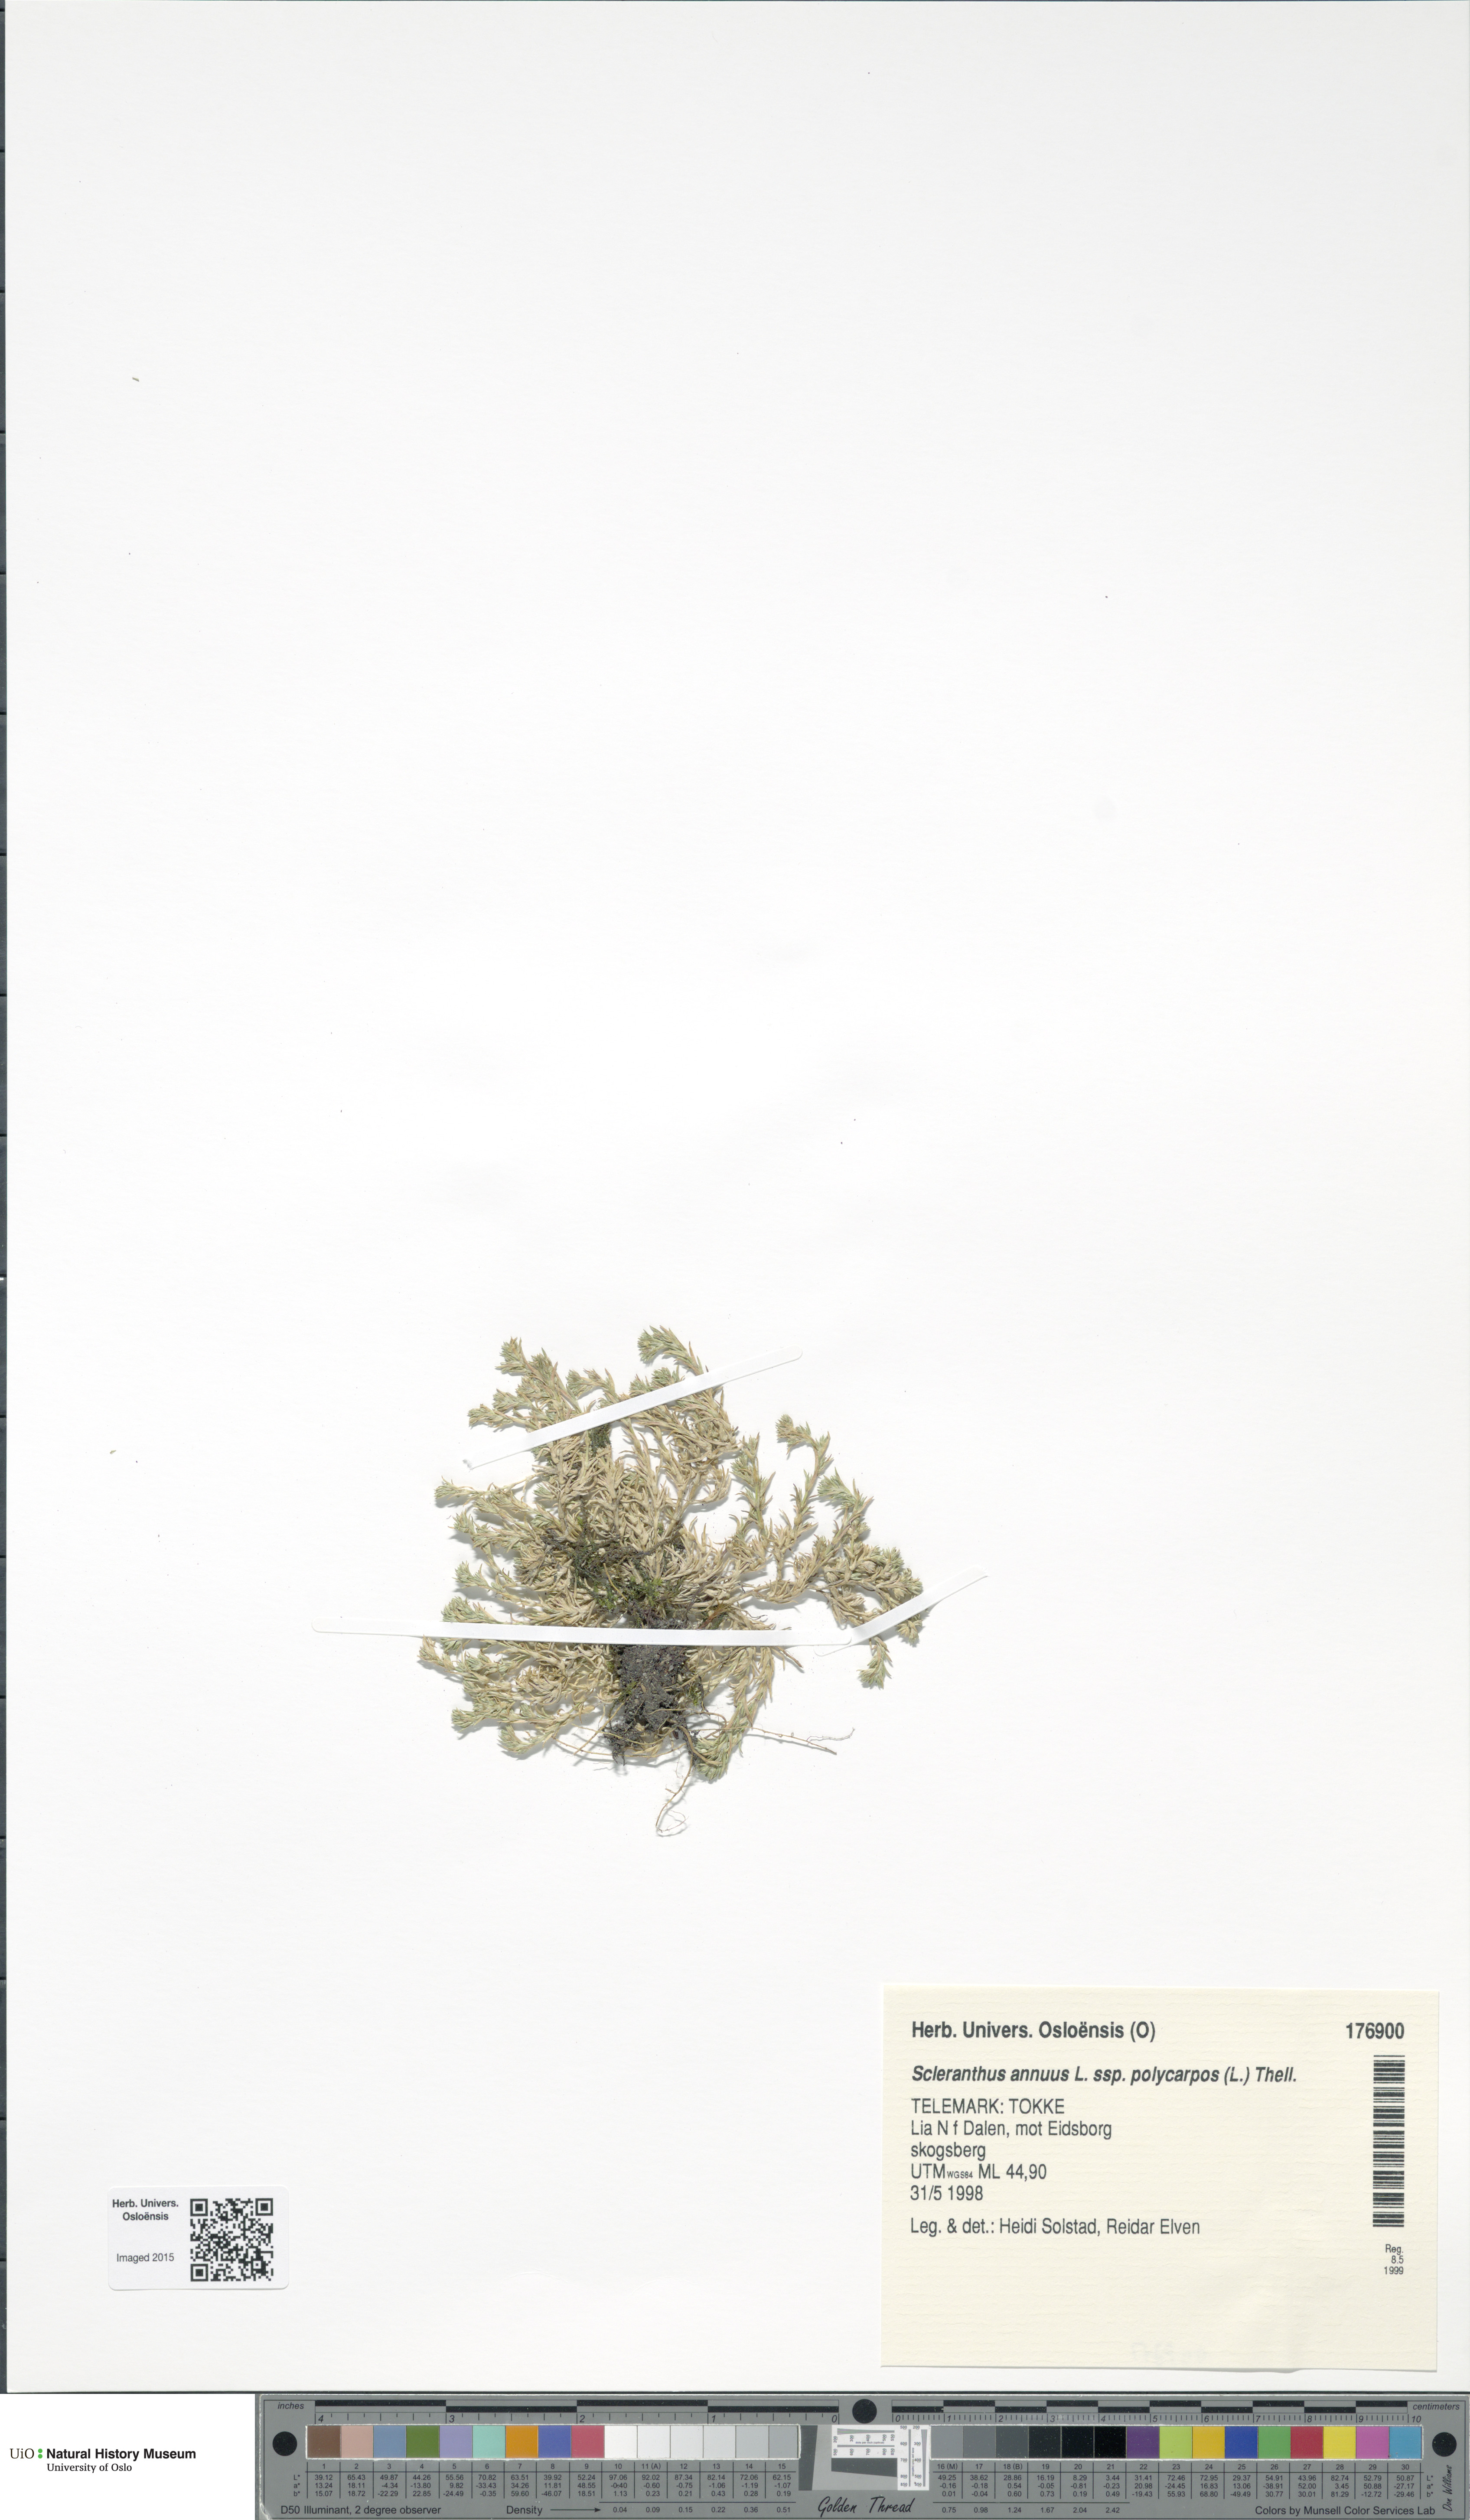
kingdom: Plantae
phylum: Tracheophyta
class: Magnoliopsida
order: Caryophyllales
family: Caryophyllaceae
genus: Scleranthus
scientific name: Scleranthus annuus
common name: Annual knawel
